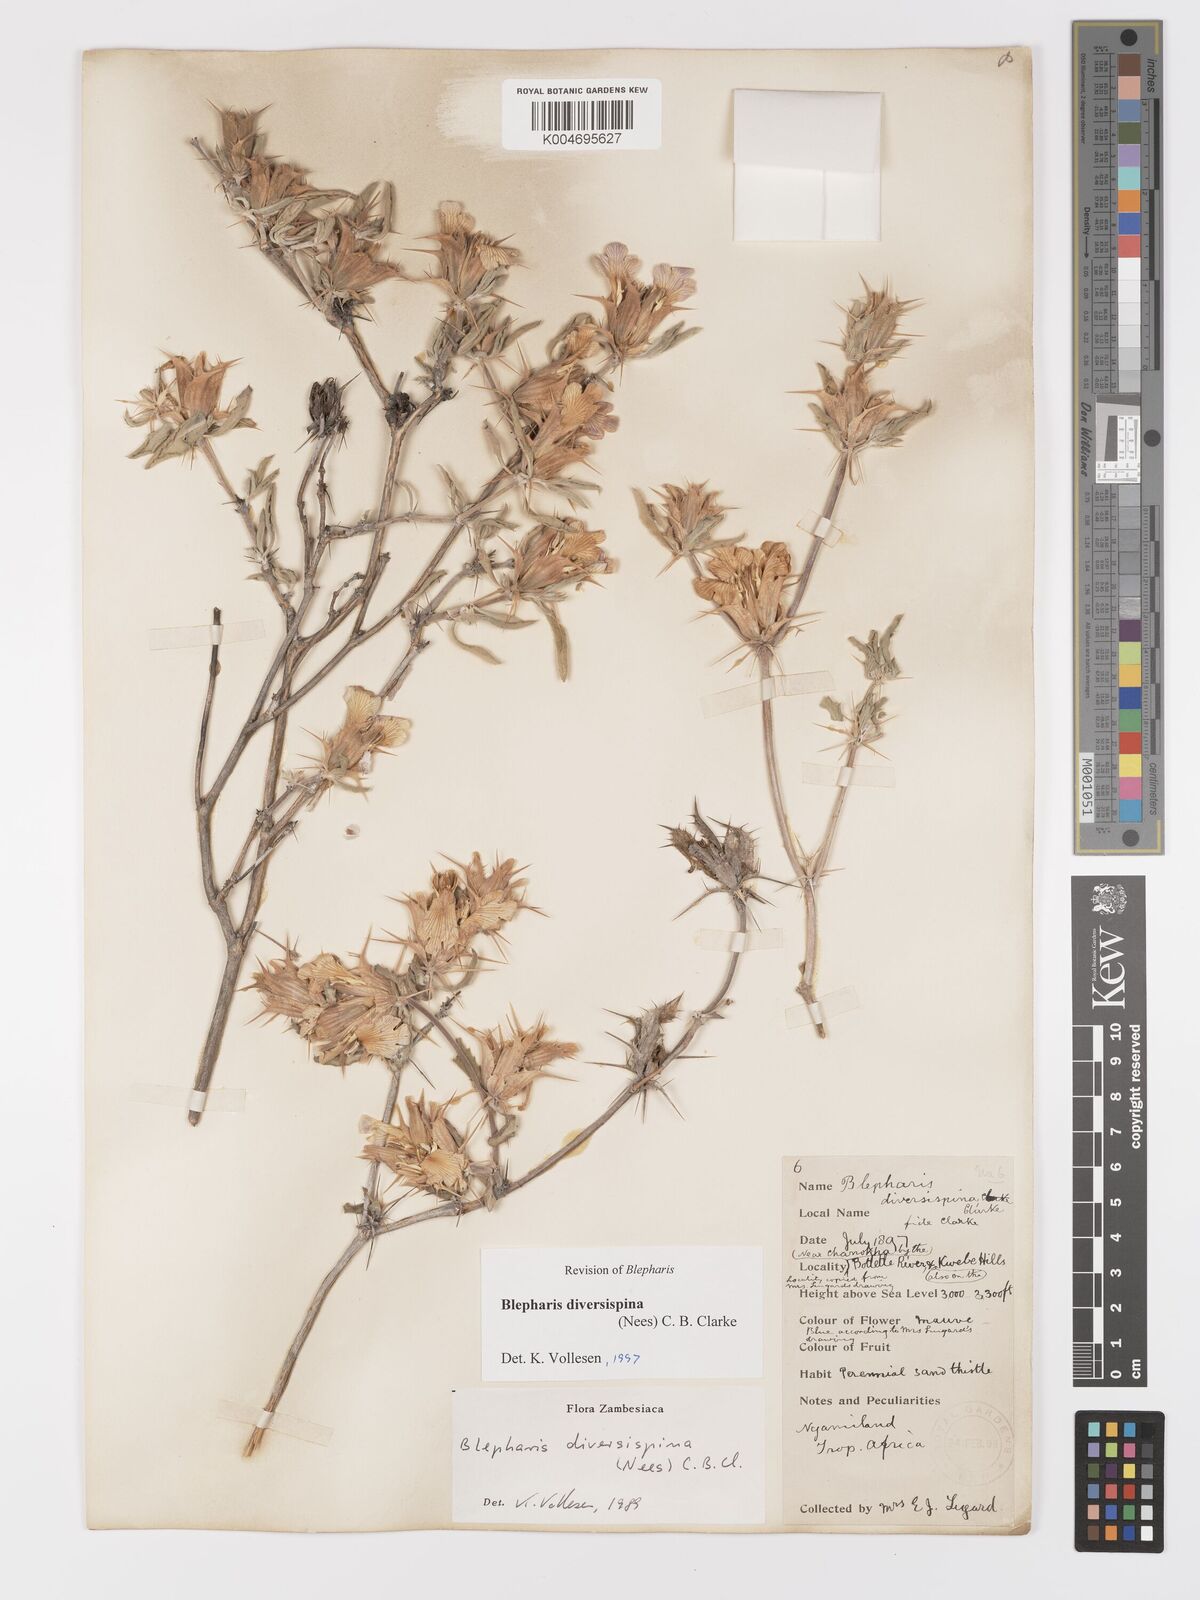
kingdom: Plantae
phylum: Tracheophyta
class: Magnoliopsida
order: Lamiales
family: Acanthaceae
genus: Blepharis
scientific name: Blepharis diversispina
